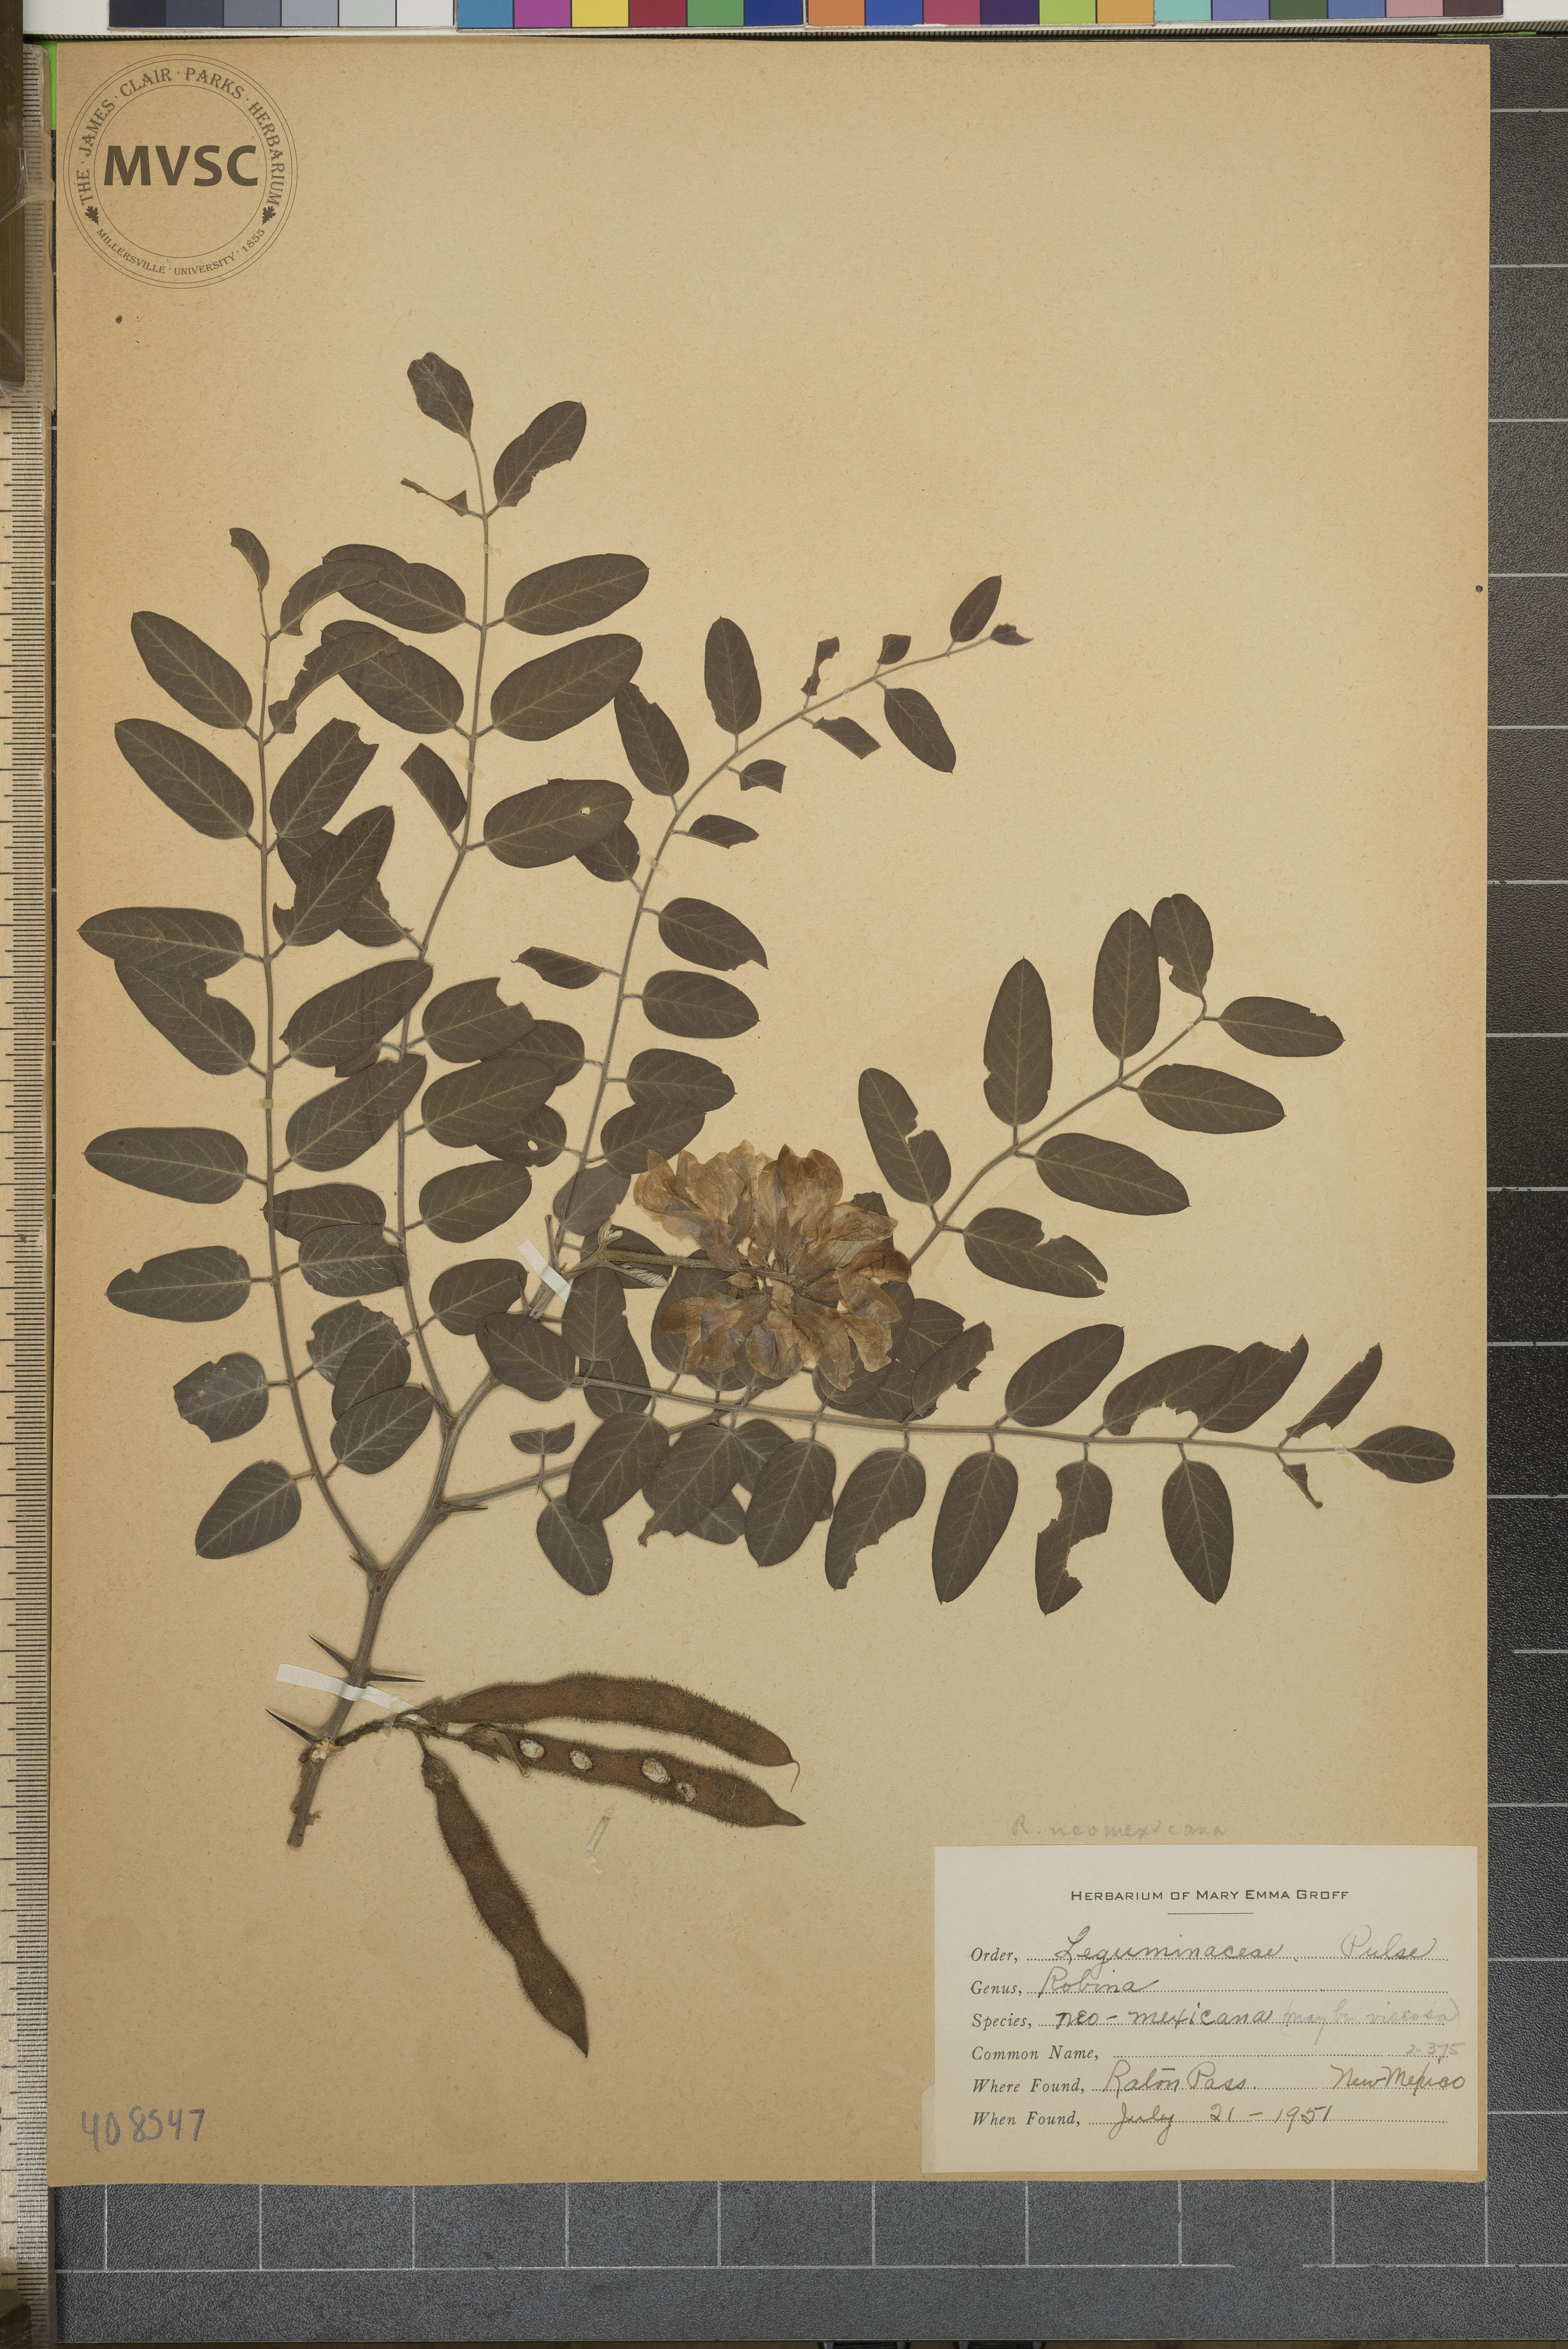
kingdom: Plantae
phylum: Tracheophyta
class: Magnoliopsida
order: Fabales
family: Fabaceae
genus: Robinia
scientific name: Robinia neomexicana
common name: New mexico locust
